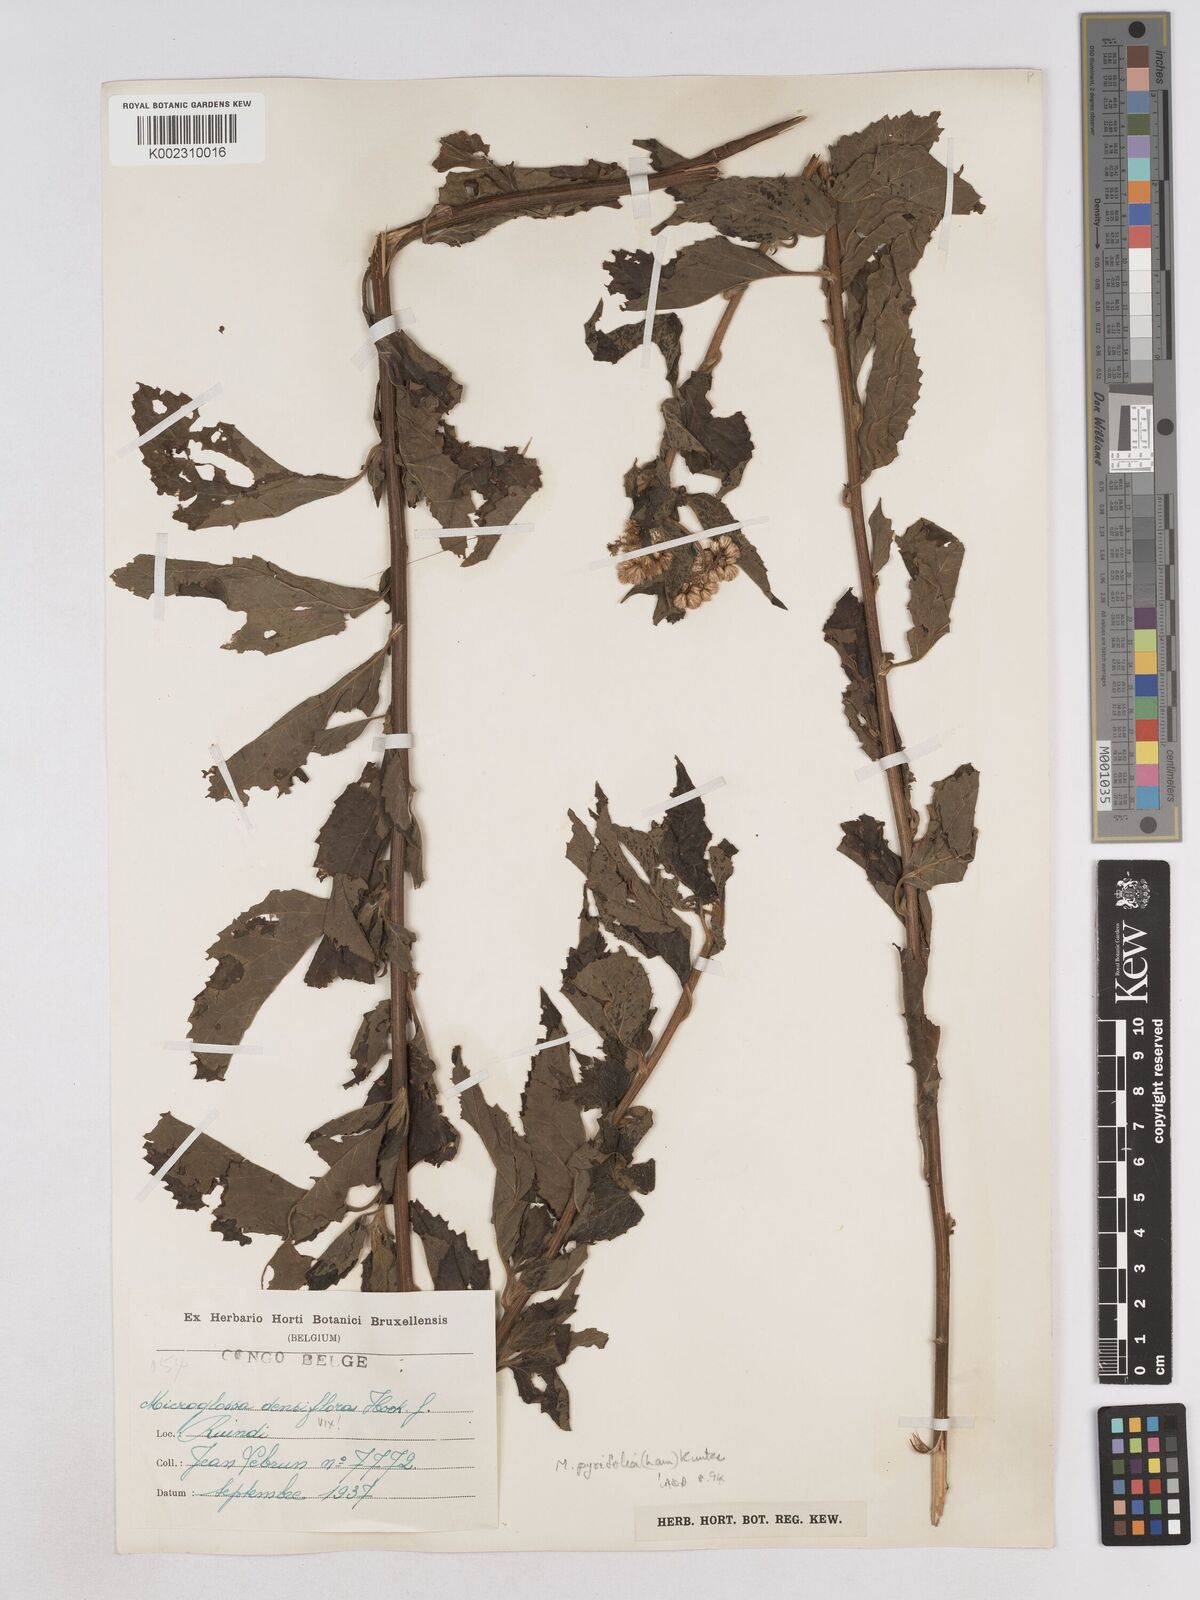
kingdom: Plantae
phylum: Tracheophyta
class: Magnoliopsida
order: Asterales
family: Asteraceae
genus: Microglossa
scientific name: Microglossa pyrifolia
